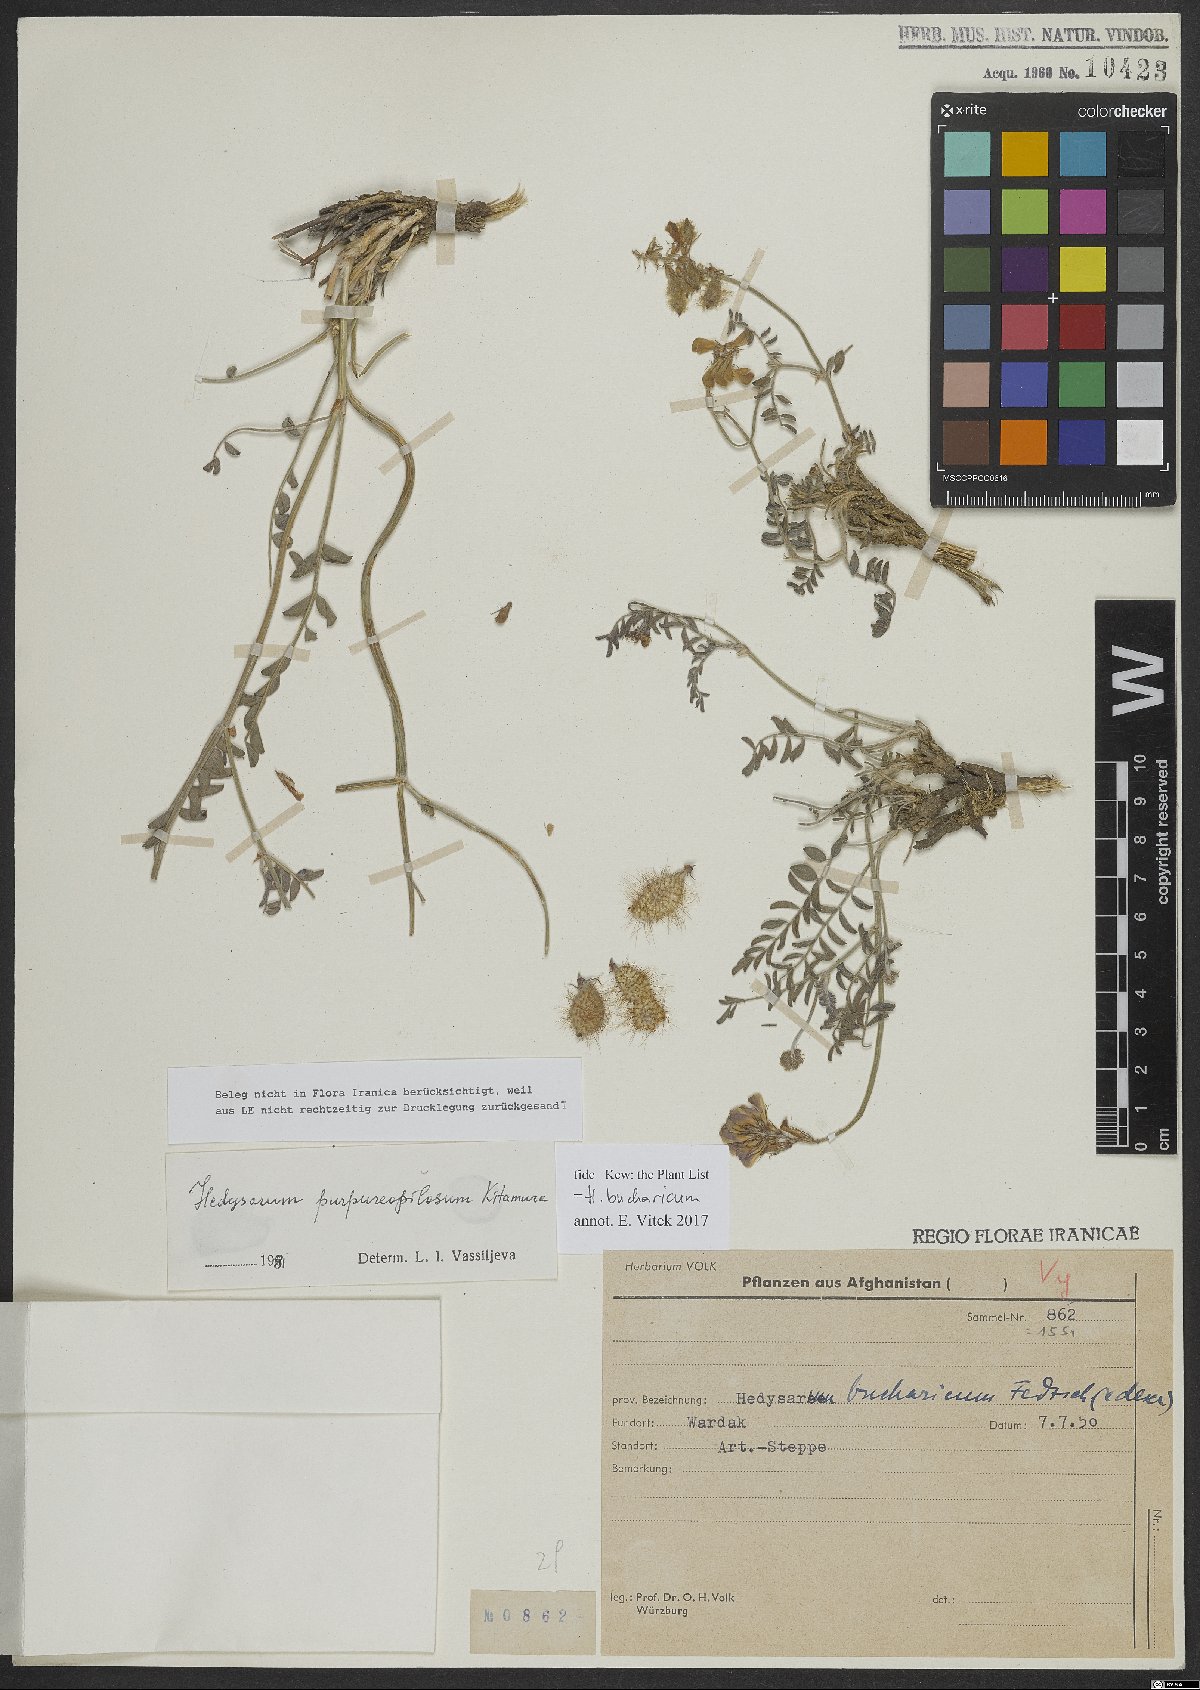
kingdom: Plantae
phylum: Tracheophyta
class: Magnoliopsida
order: Fabales
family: Fabaceae
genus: Hedysarum
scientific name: Hedysarum bucharicum
